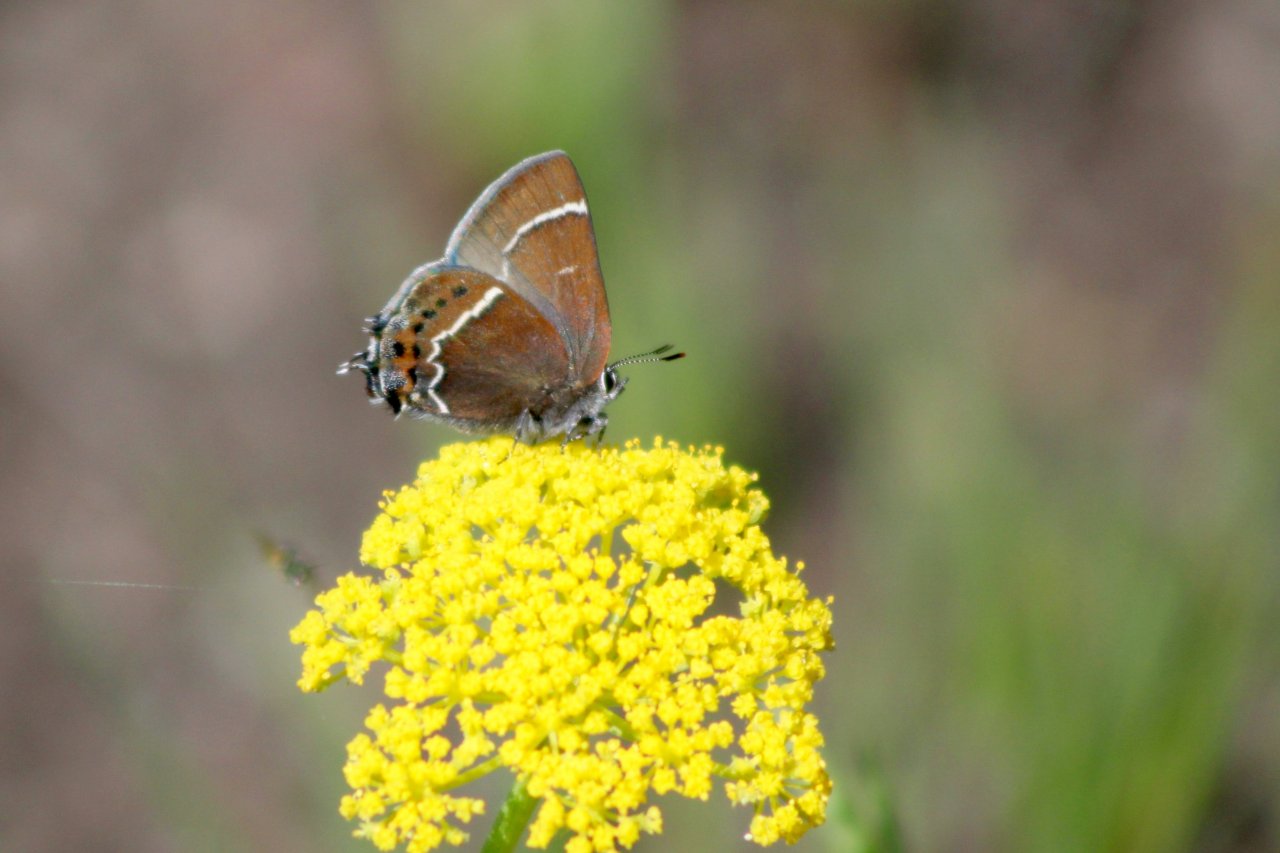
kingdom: Animalia
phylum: Arthropoda
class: Insecta
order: Lepidoptera
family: Lycaenidae
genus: Mitoura
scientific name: Mitoura spinetorum
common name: Thicket Hairstreak
